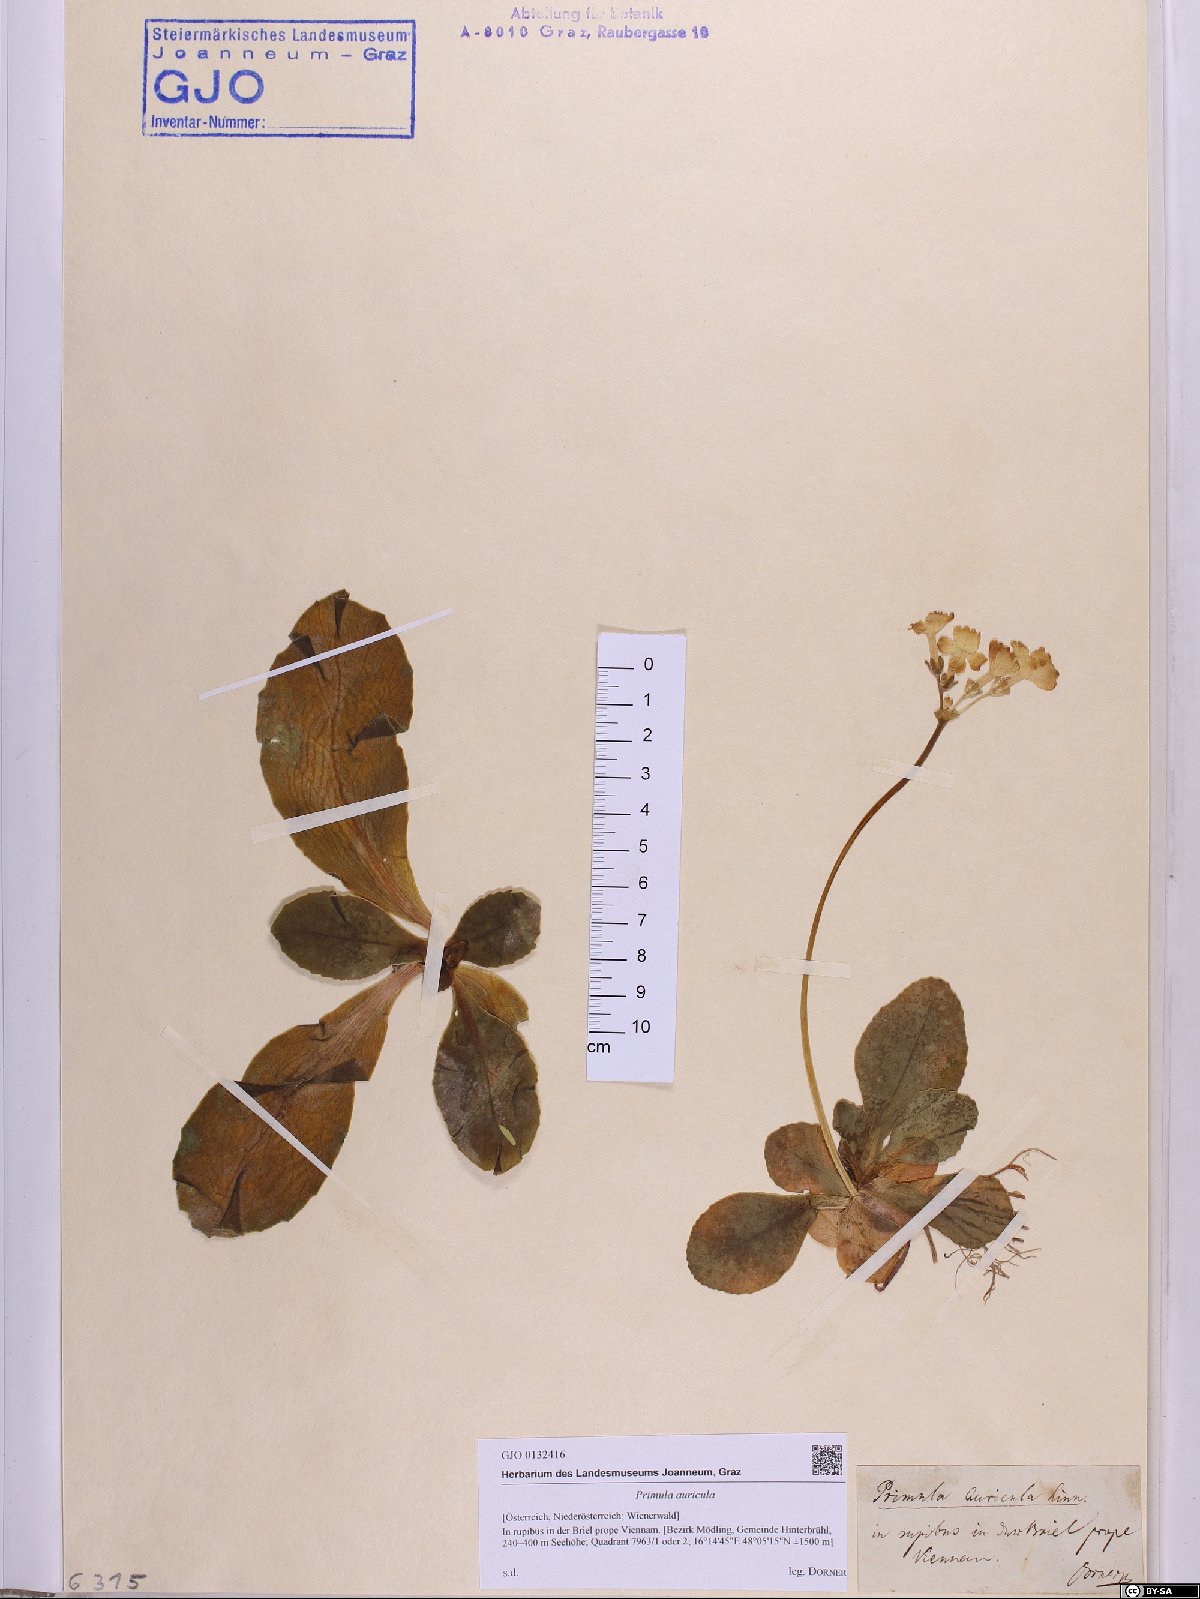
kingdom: Plantae
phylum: Tracheophyta
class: Magnoliopsida
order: Ericales
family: Primulaceae
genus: Primula
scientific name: Primula auricula
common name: Auricula
